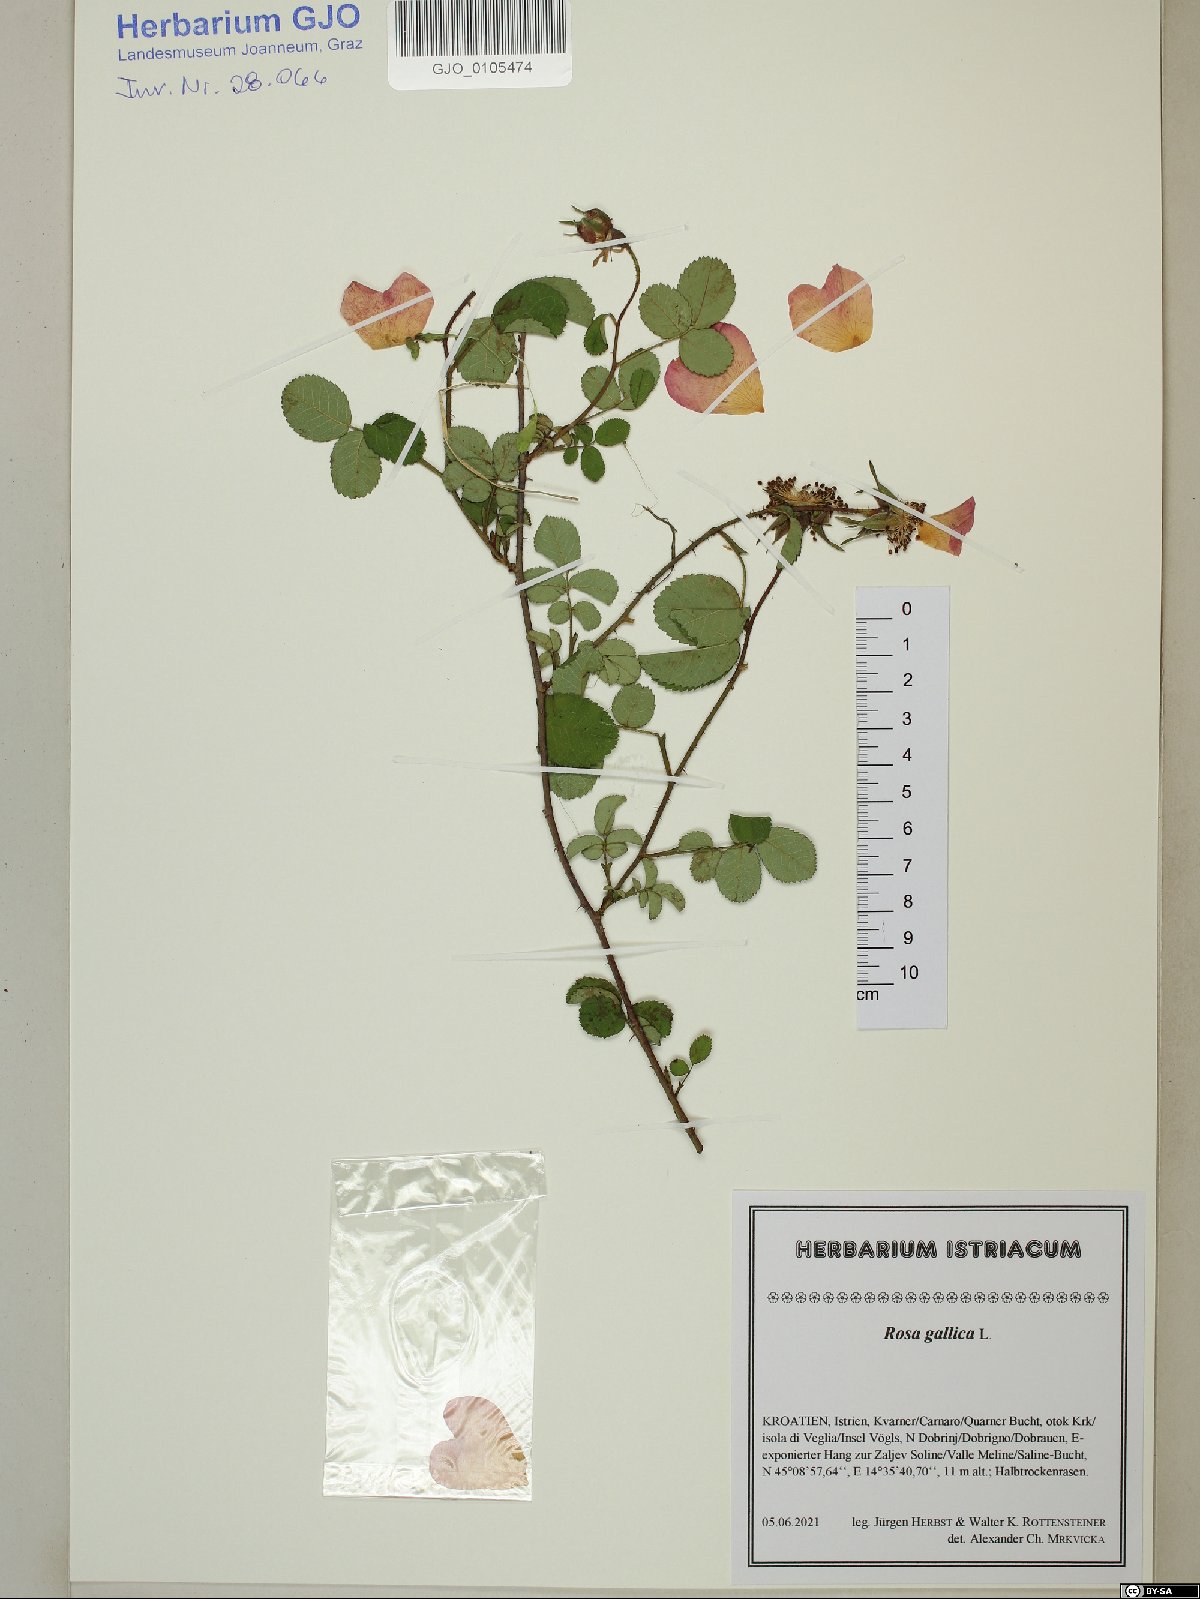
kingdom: Plantae
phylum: Tracheophyta
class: Magnoliopsida
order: Rosales
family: Rosaceae
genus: Rosa
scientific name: Rosa gallica
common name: French rose
